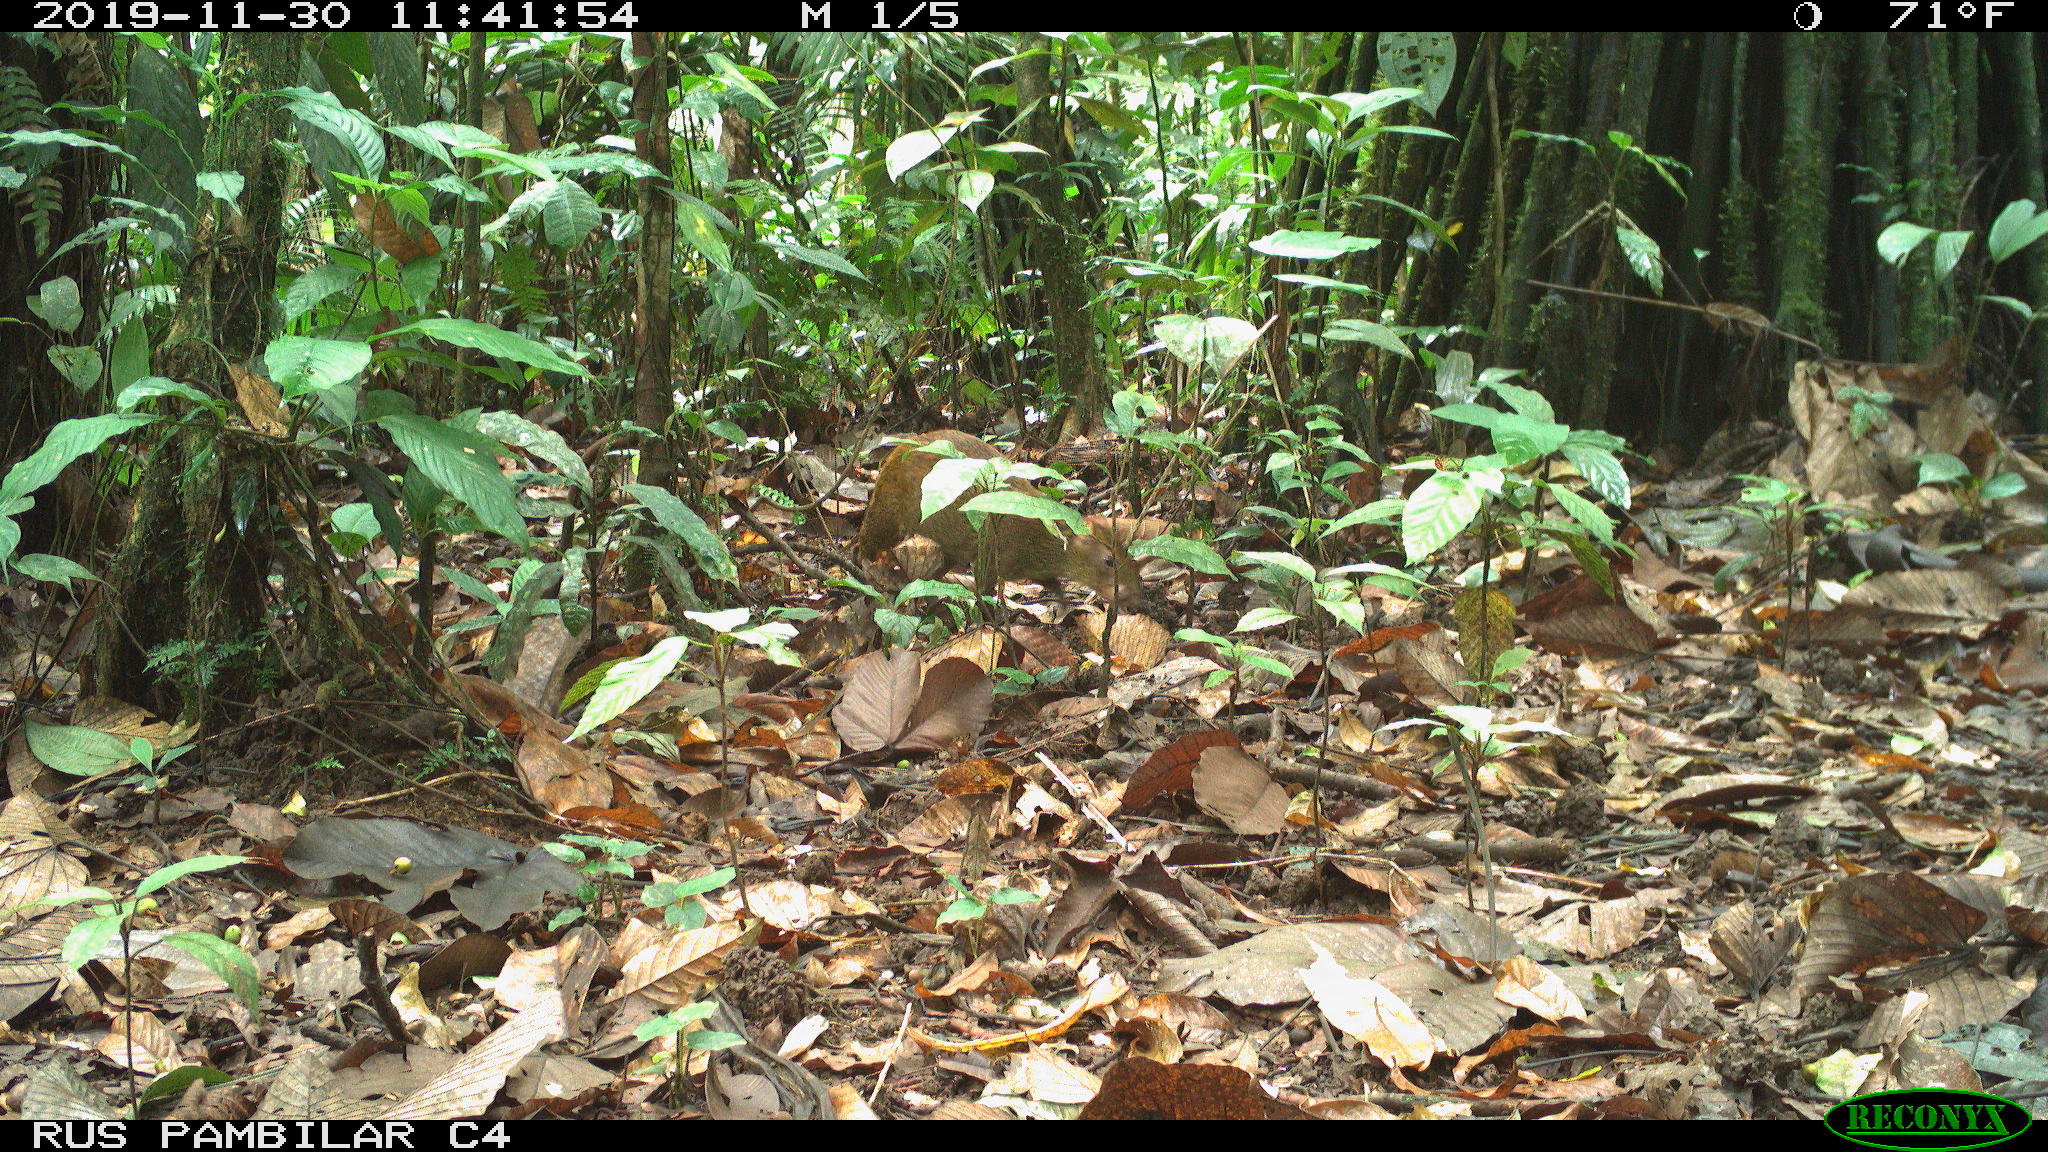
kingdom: Animalia
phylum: Chordata
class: Mammalia
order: Rodentia
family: Dasyproctidae
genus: Dasyprocta
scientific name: Dasyprocta punctata
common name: Central american agouti
